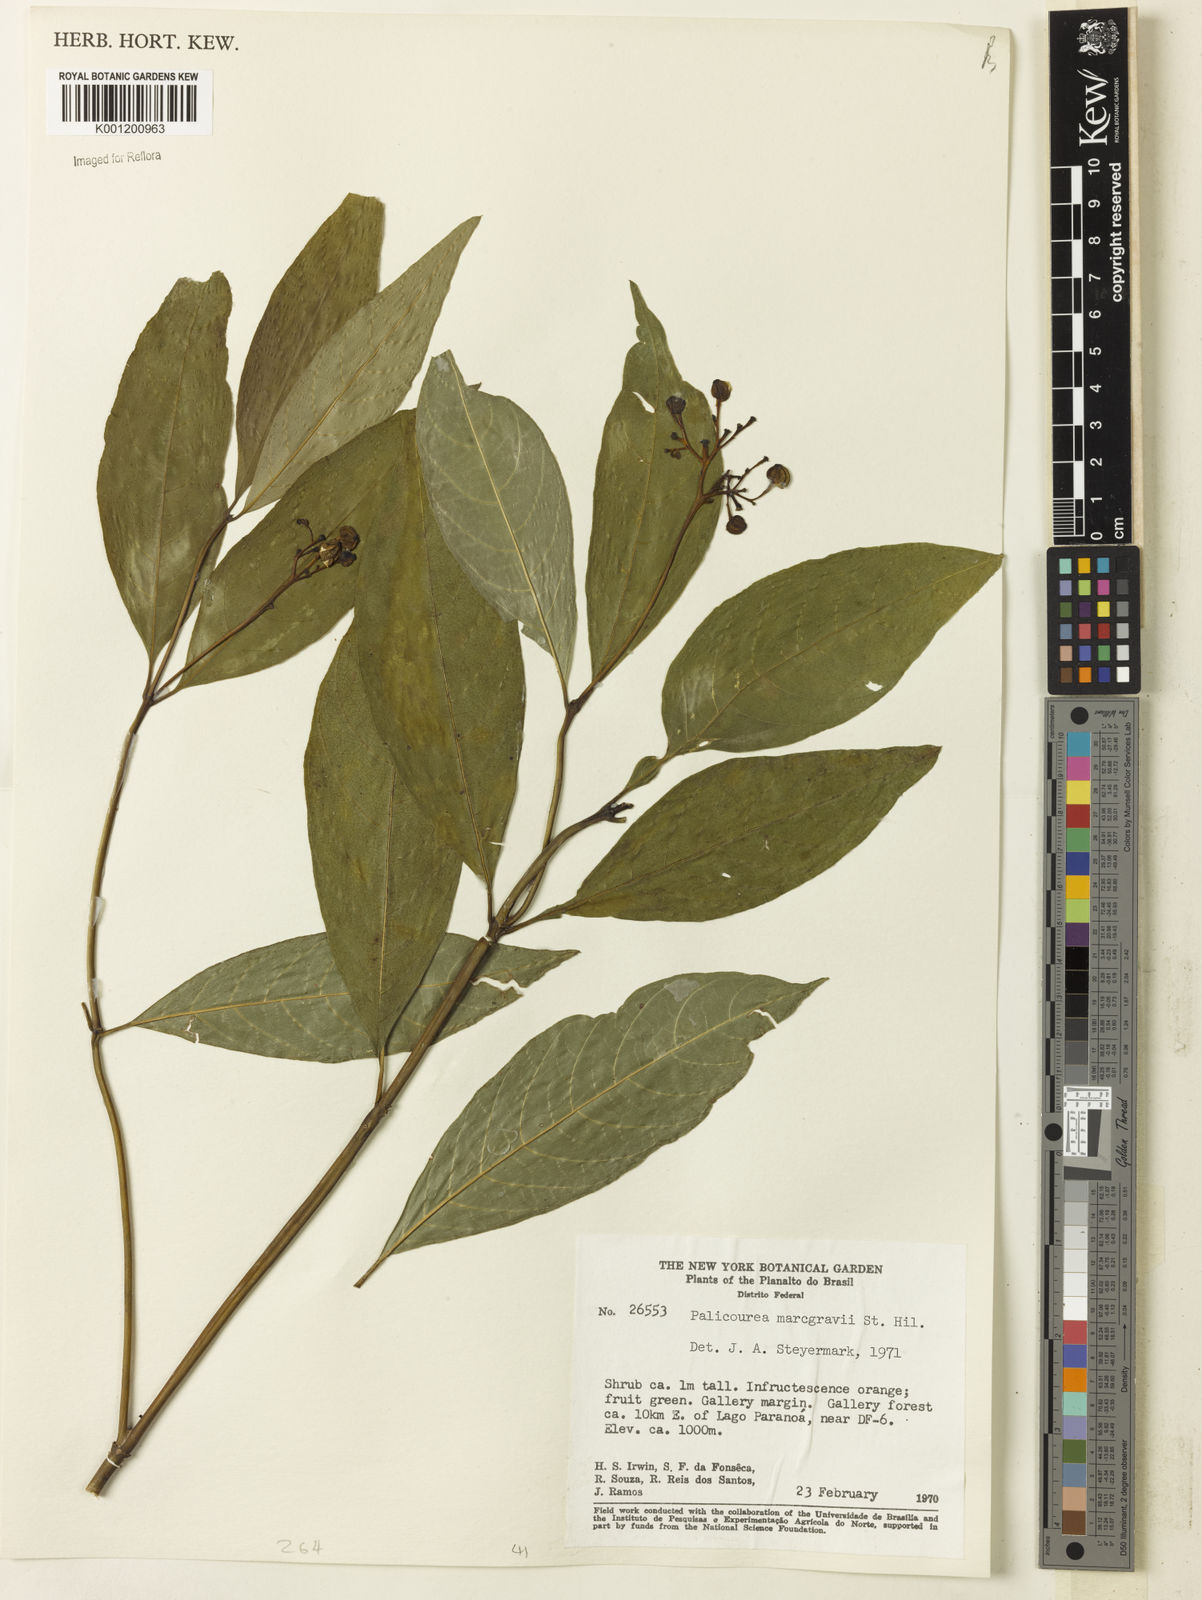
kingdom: Plantae
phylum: Tracheophyta
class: Magnoliopsida
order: Gentianales
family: Rubiaceae
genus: Palicourea
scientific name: Palicourea marcgravii
